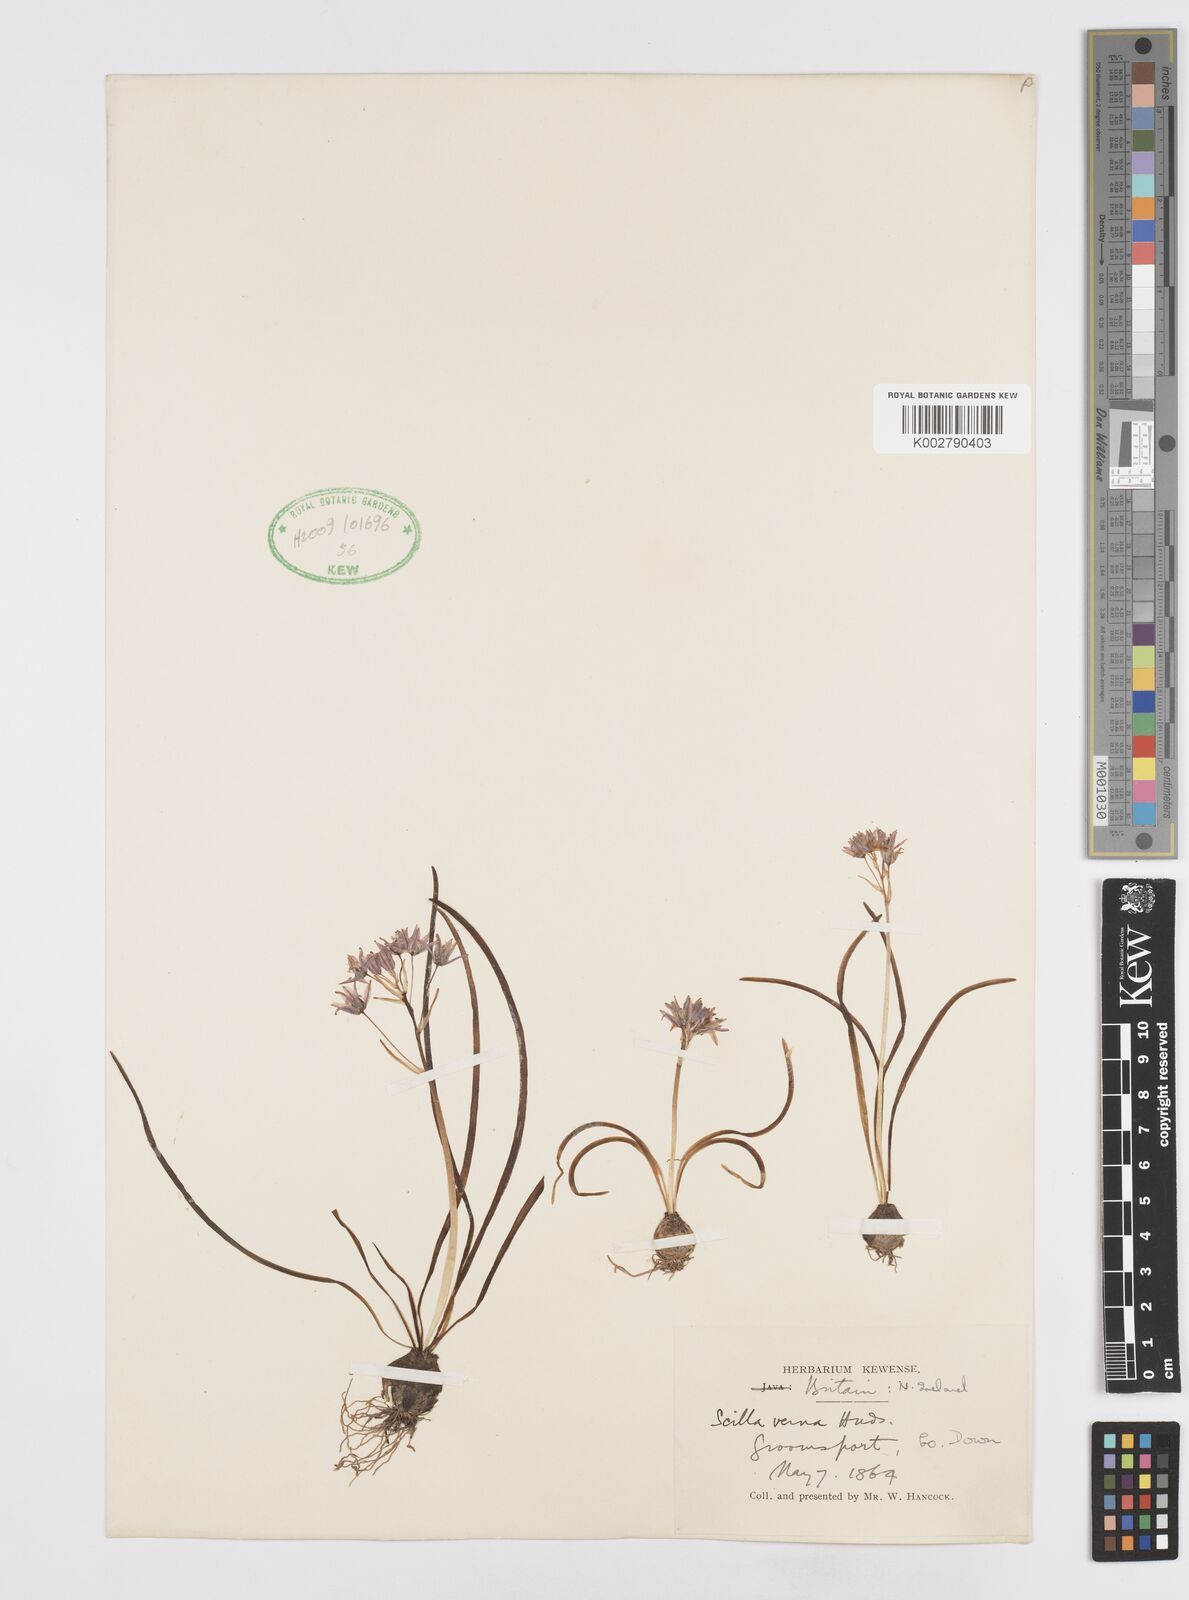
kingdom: Plantae
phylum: Tracheophyta
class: Liliopsida
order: Asparagales
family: Asparagaceae
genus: Scilla
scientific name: Scilla verna
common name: Spring squill
